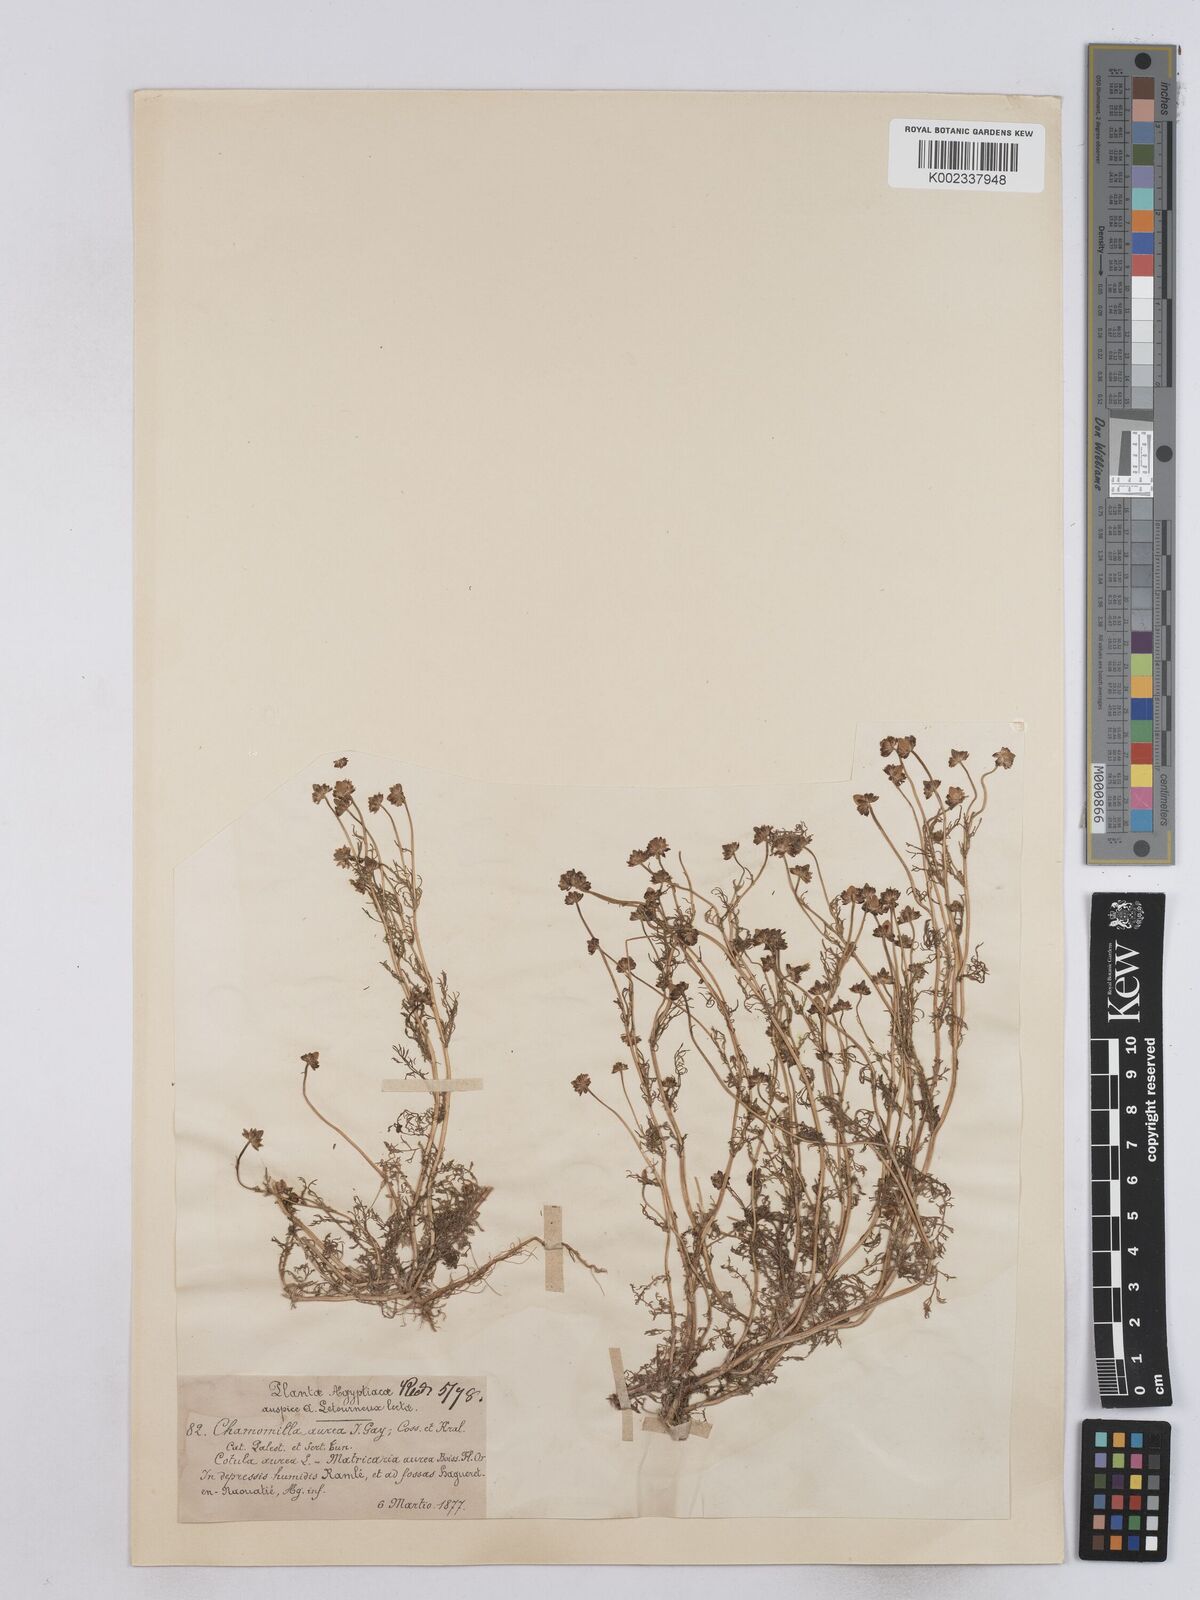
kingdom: Plantae
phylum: Tracheophyta
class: Magnoliopsida
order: Asterales
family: Asteraceae
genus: Matricaria
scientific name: Matricaria
